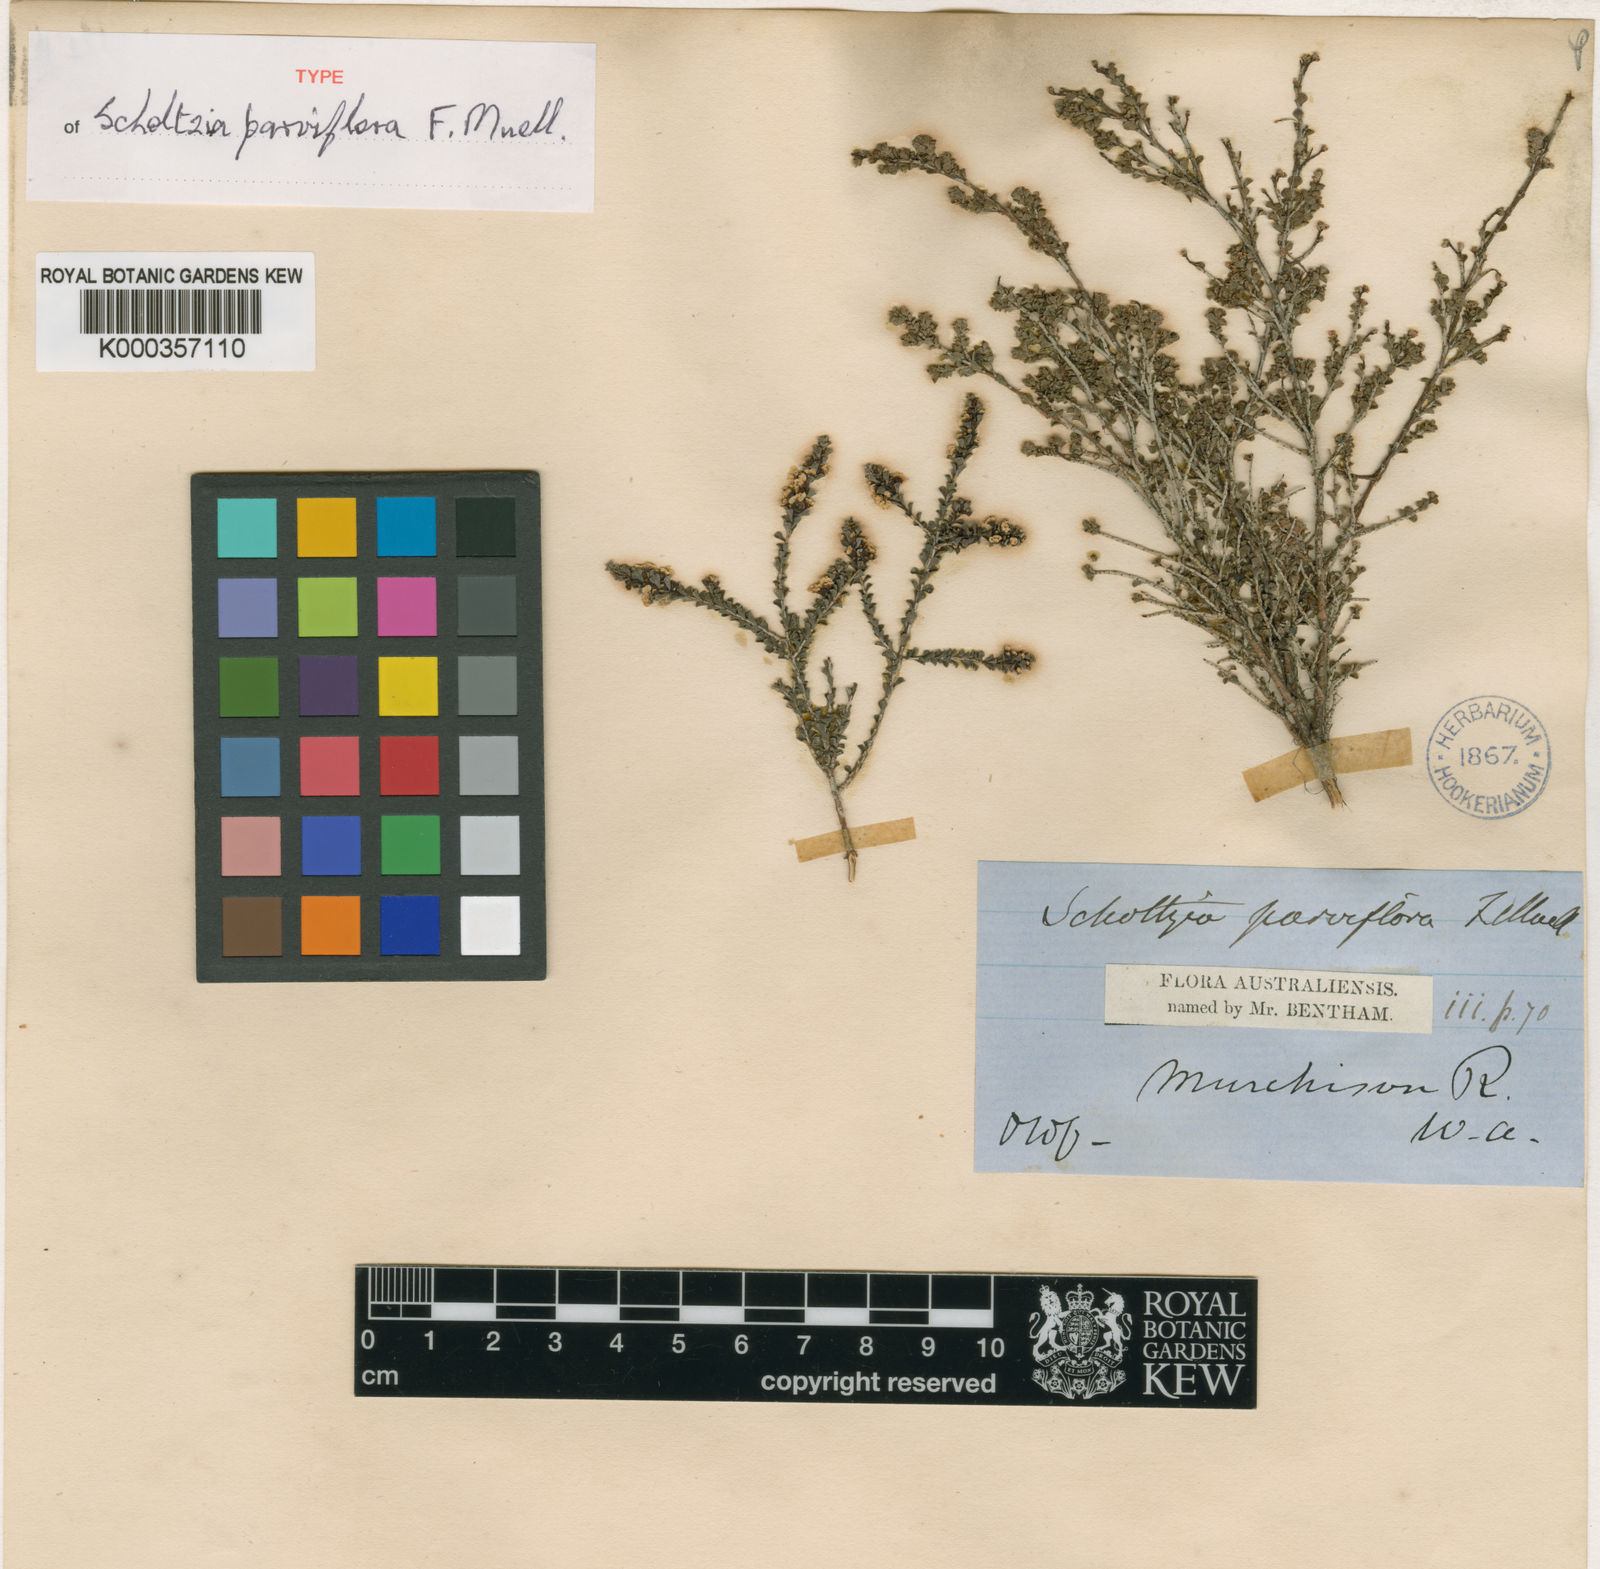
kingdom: Plantae
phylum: Tracheophyta
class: Magnoliopsida
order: Myrtales
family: Myrtaceae
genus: Scholtzia
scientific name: Scholtzia parviflora
